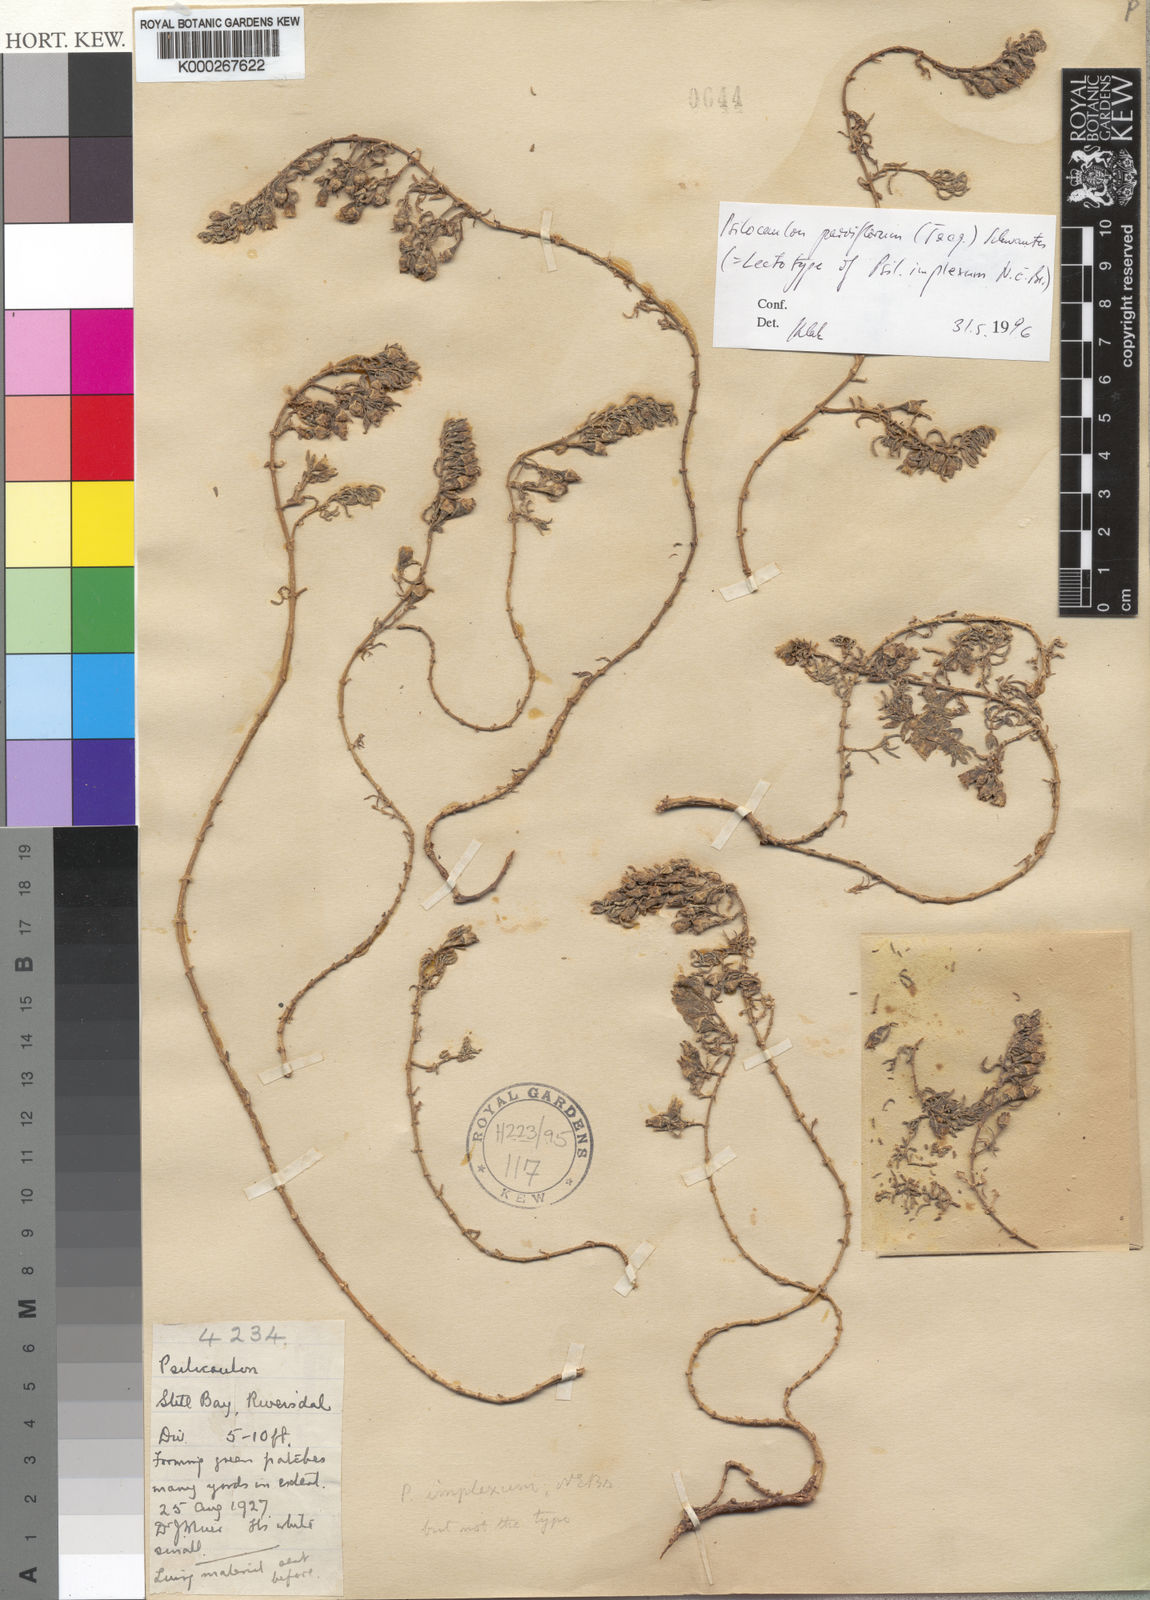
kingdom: Plantae
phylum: Tracheophyta
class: Magnoliopsida
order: Caryophyllales
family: Aizoaceae
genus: Mesembryanthemum
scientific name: Mesembryanthemum parviflorum
